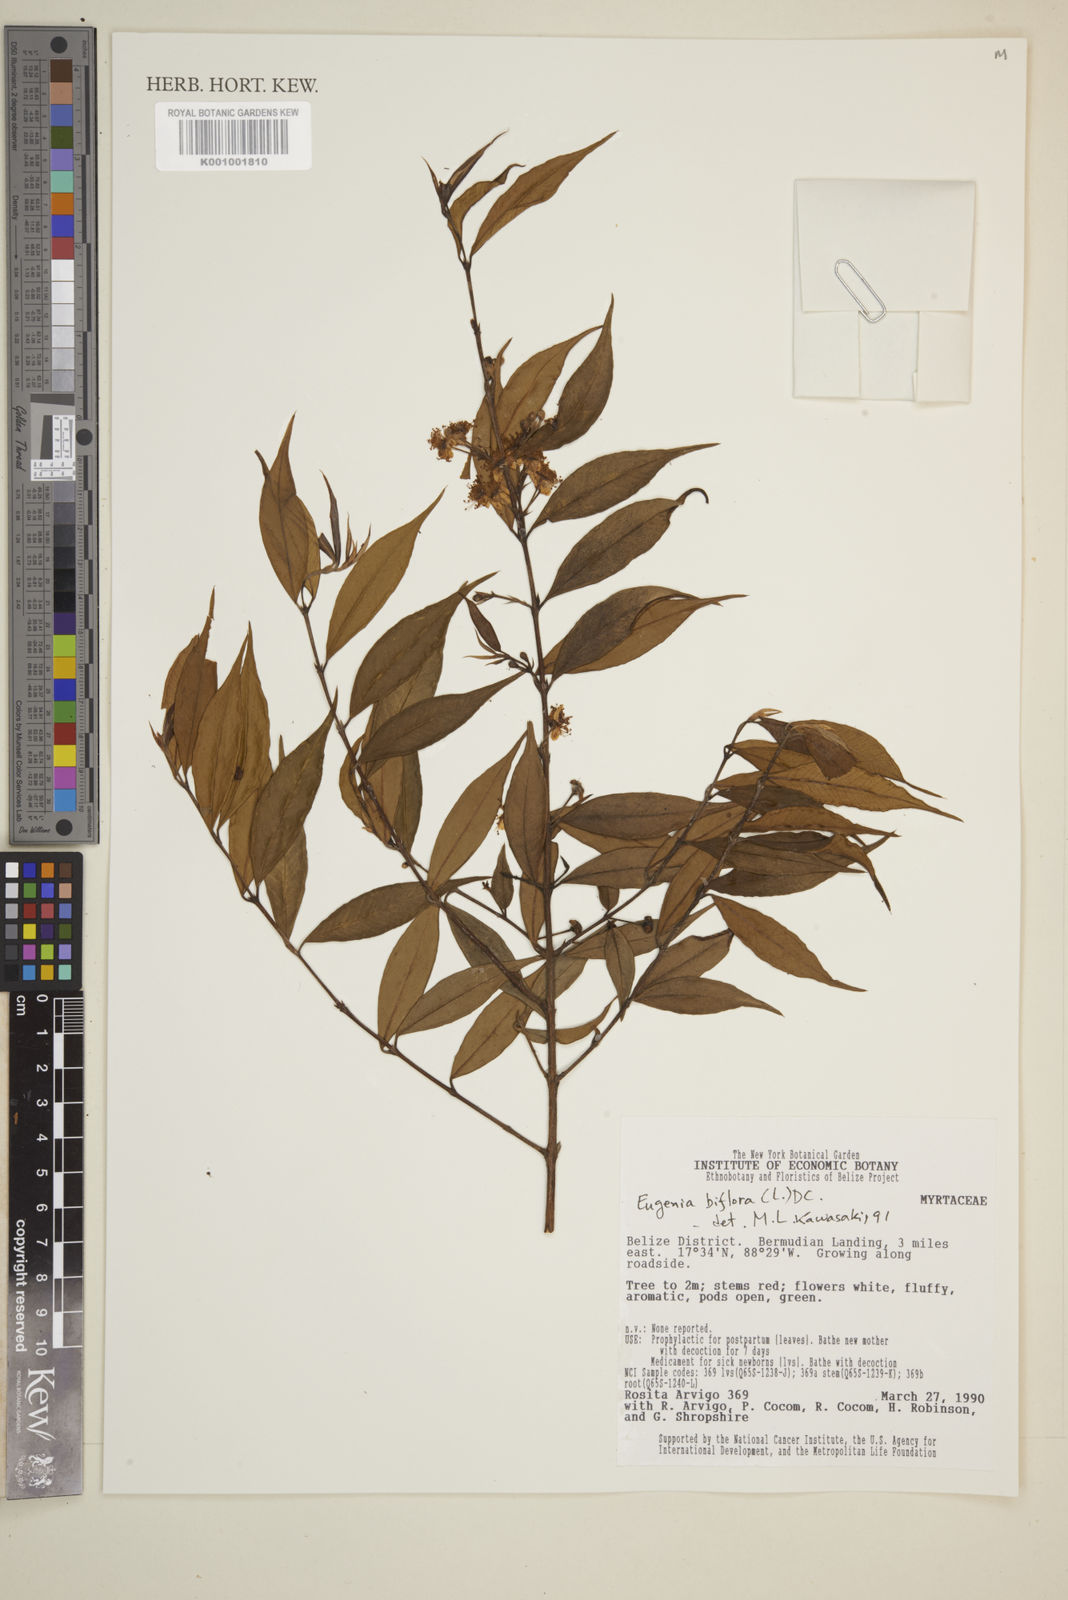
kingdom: Plantae
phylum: Tracheophyta
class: Magnoliopsida
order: Myrtales
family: Myrtaceae
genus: Eugenia
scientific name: Eugenia biflora
